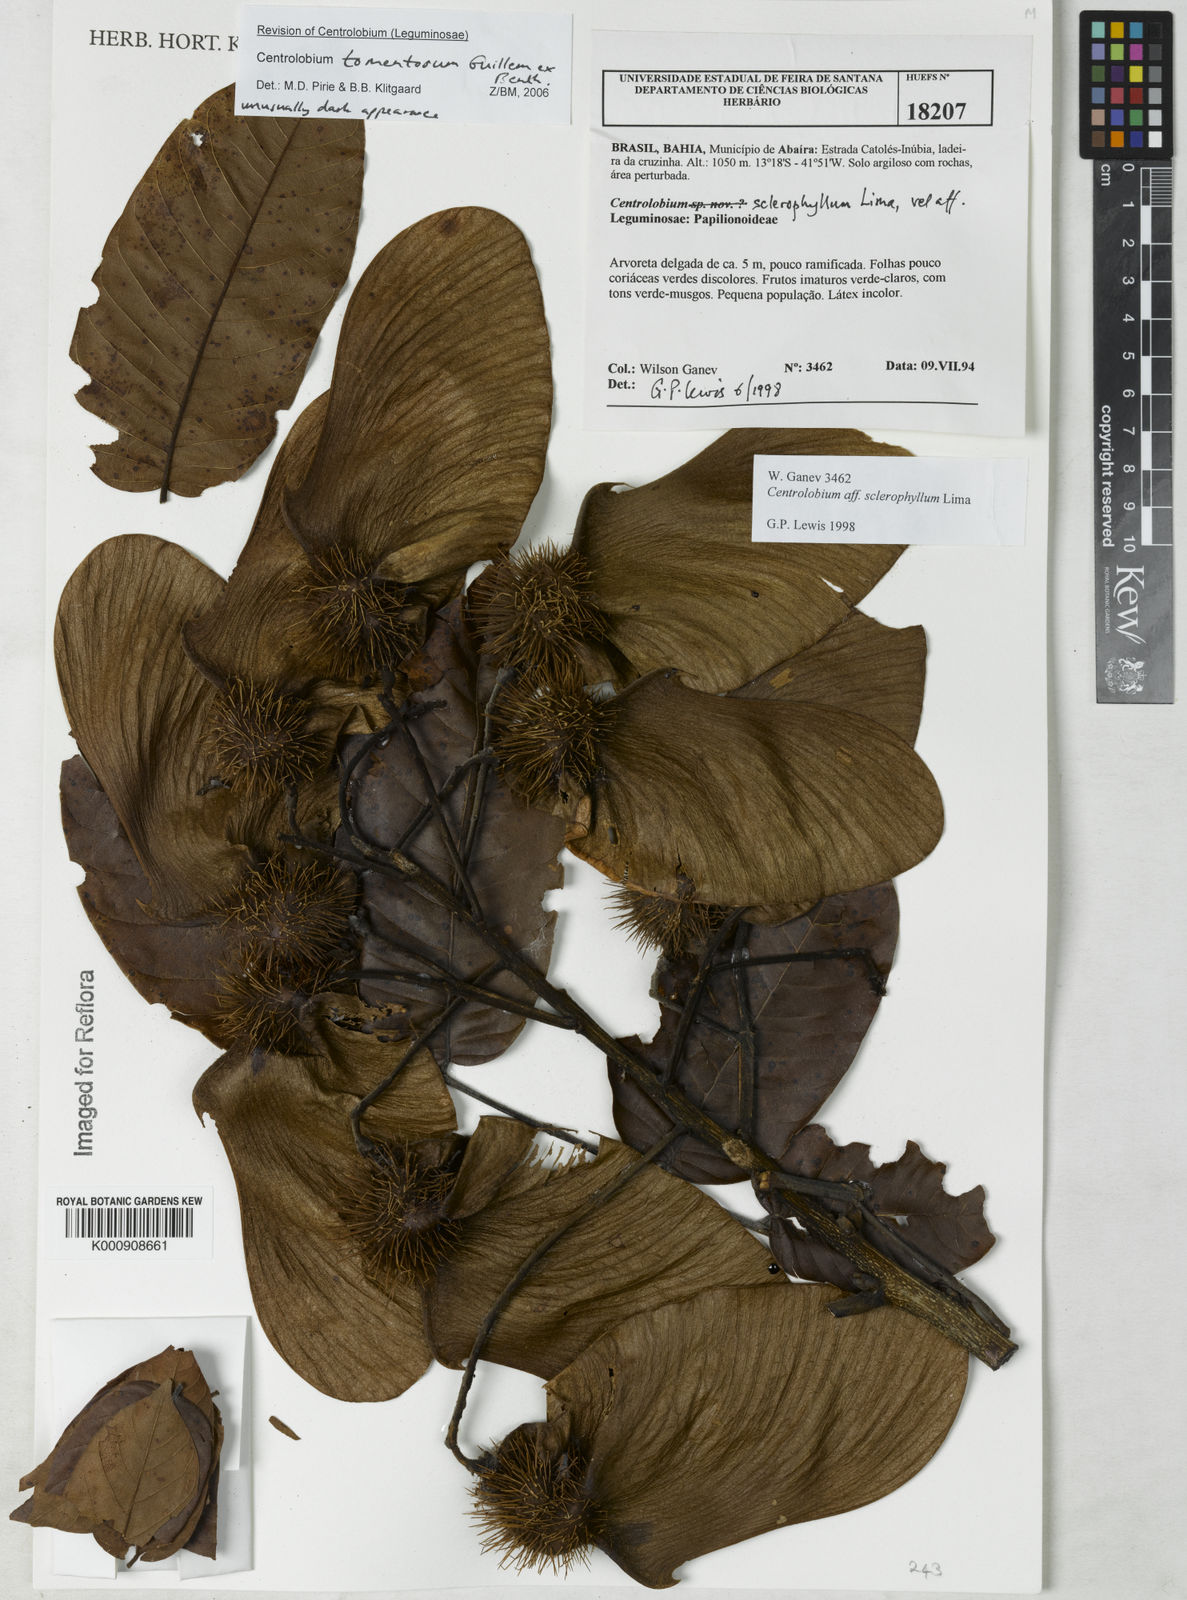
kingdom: Plantae
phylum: Tracheophyta
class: Magnoliopsida
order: Fabales
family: Fabaceae
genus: Centrolobium
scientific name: Centrolobium tomentosum
